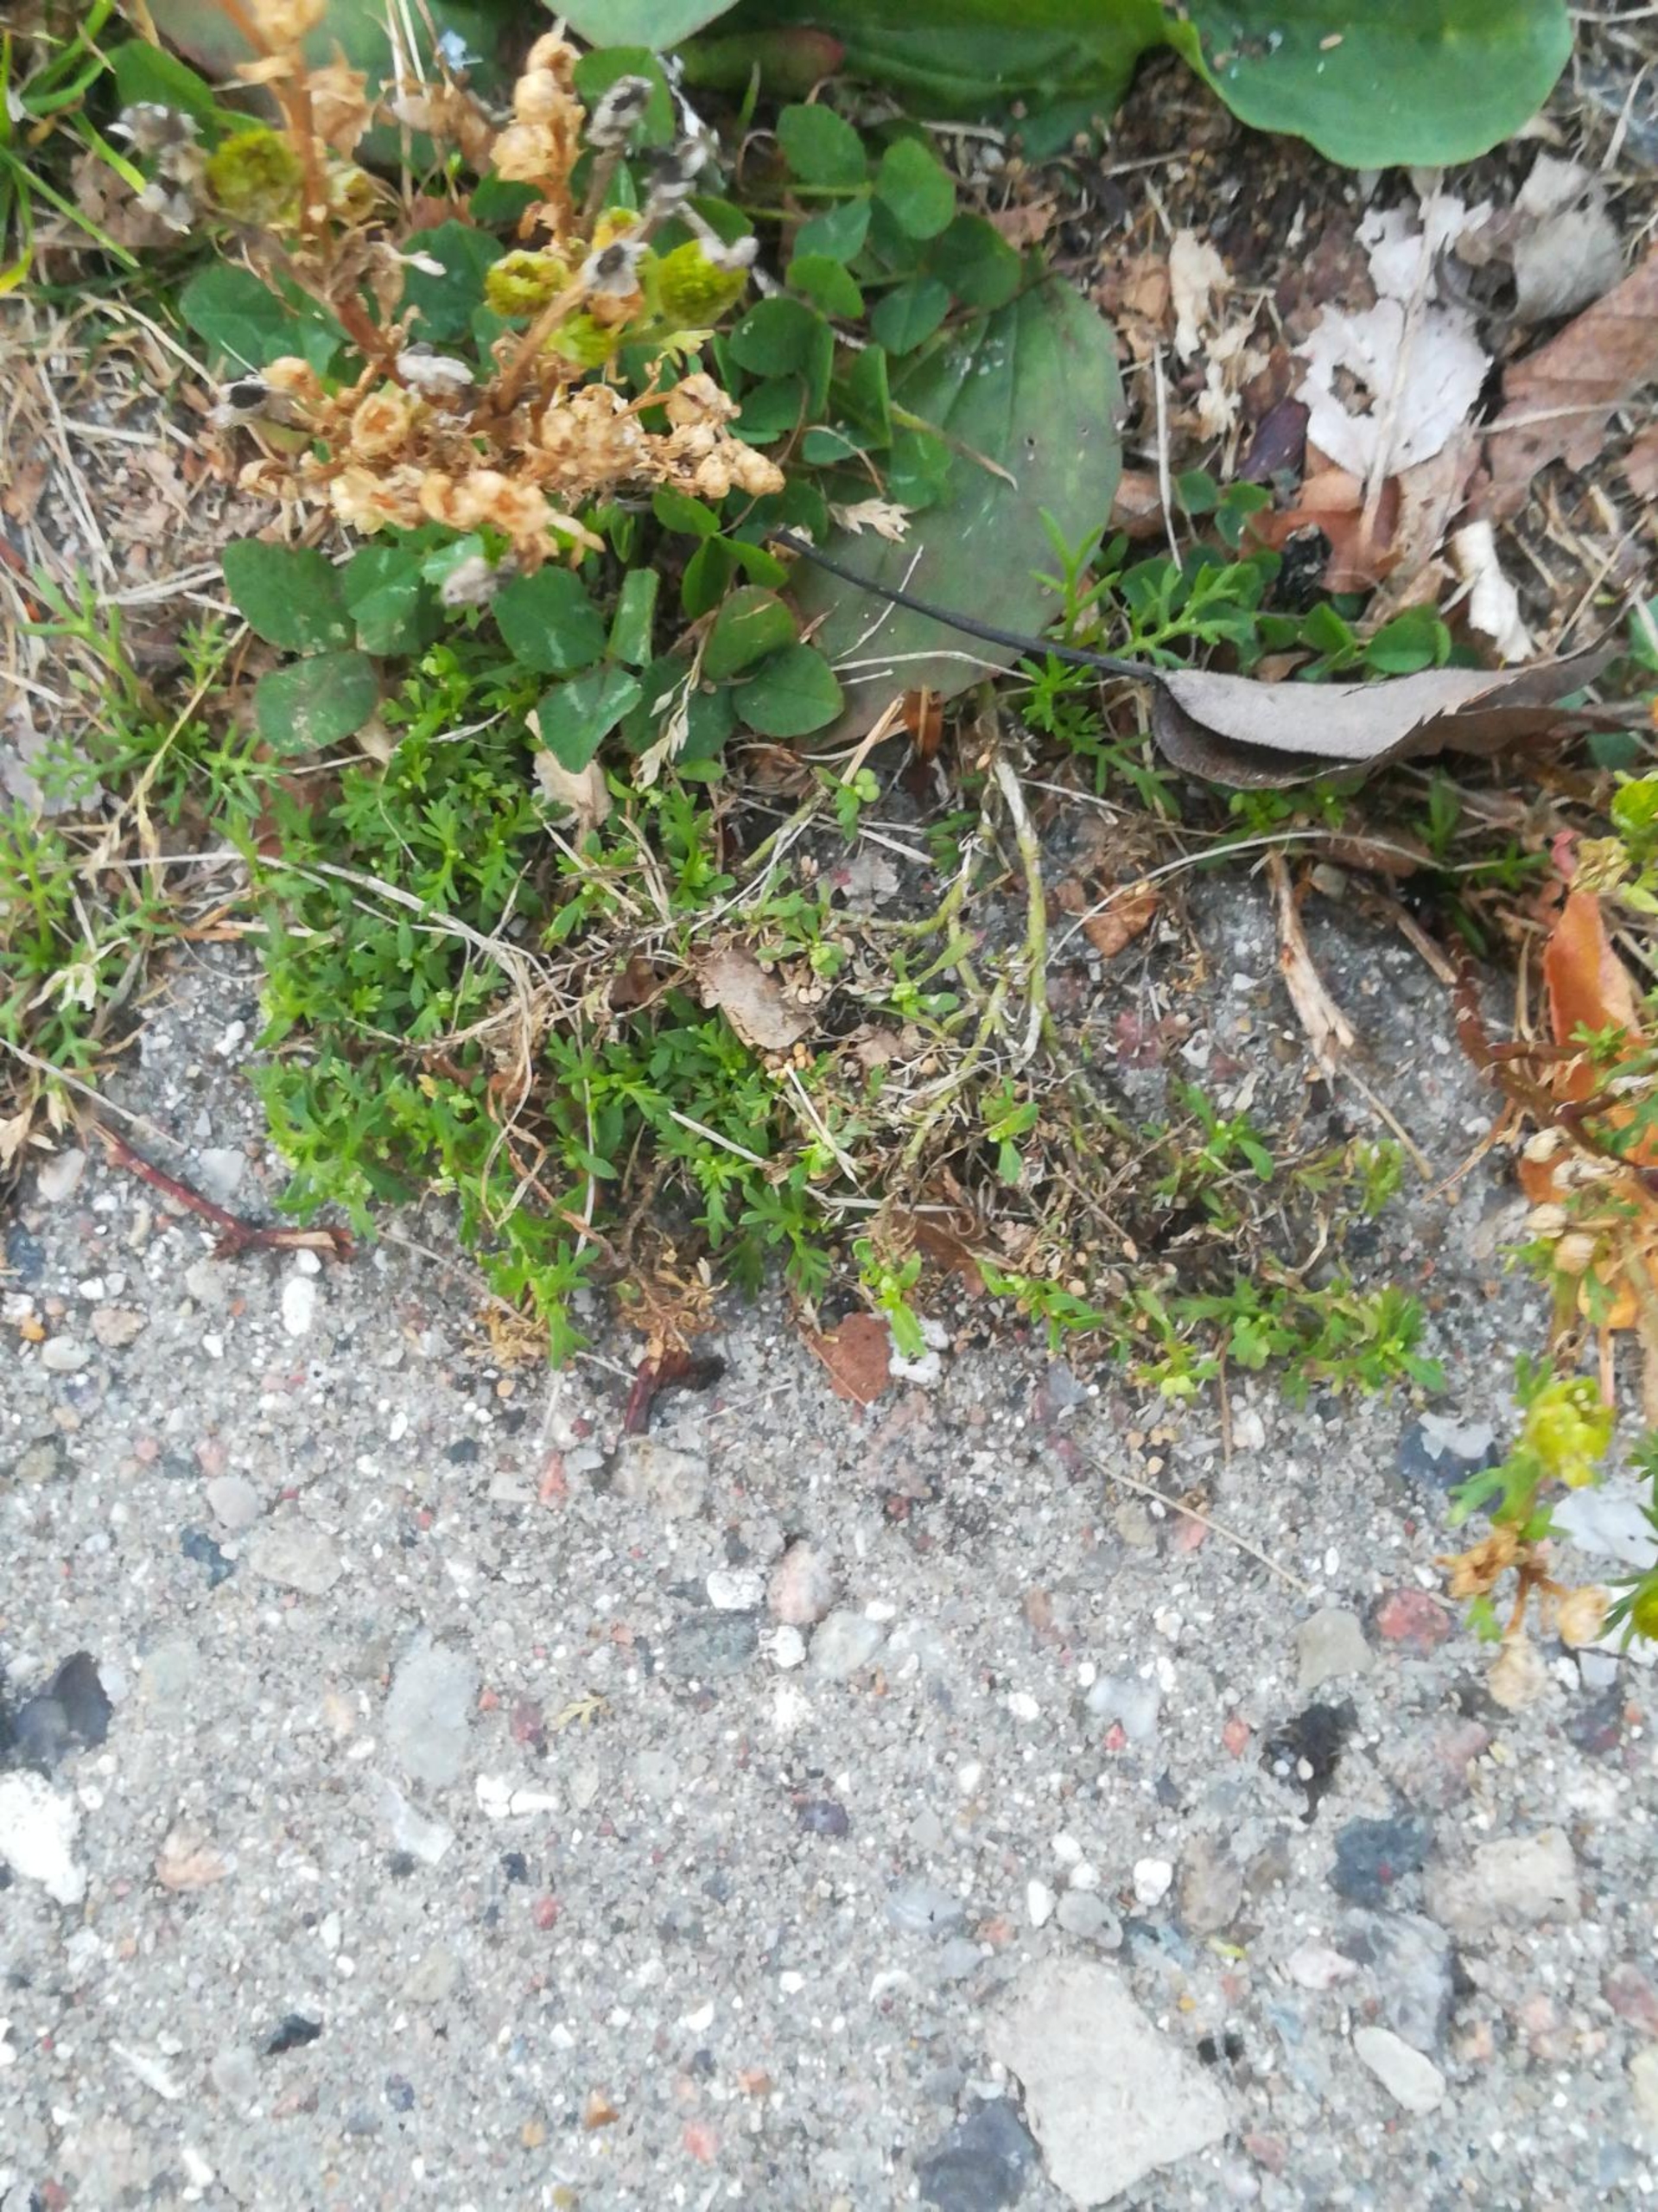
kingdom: Plantae
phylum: Tracheophyta
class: Magnoliopsida
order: Brassicales
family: Brassicaceae
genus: Lepidium
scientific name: Lepidium didymum
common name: Liden ravnefod
